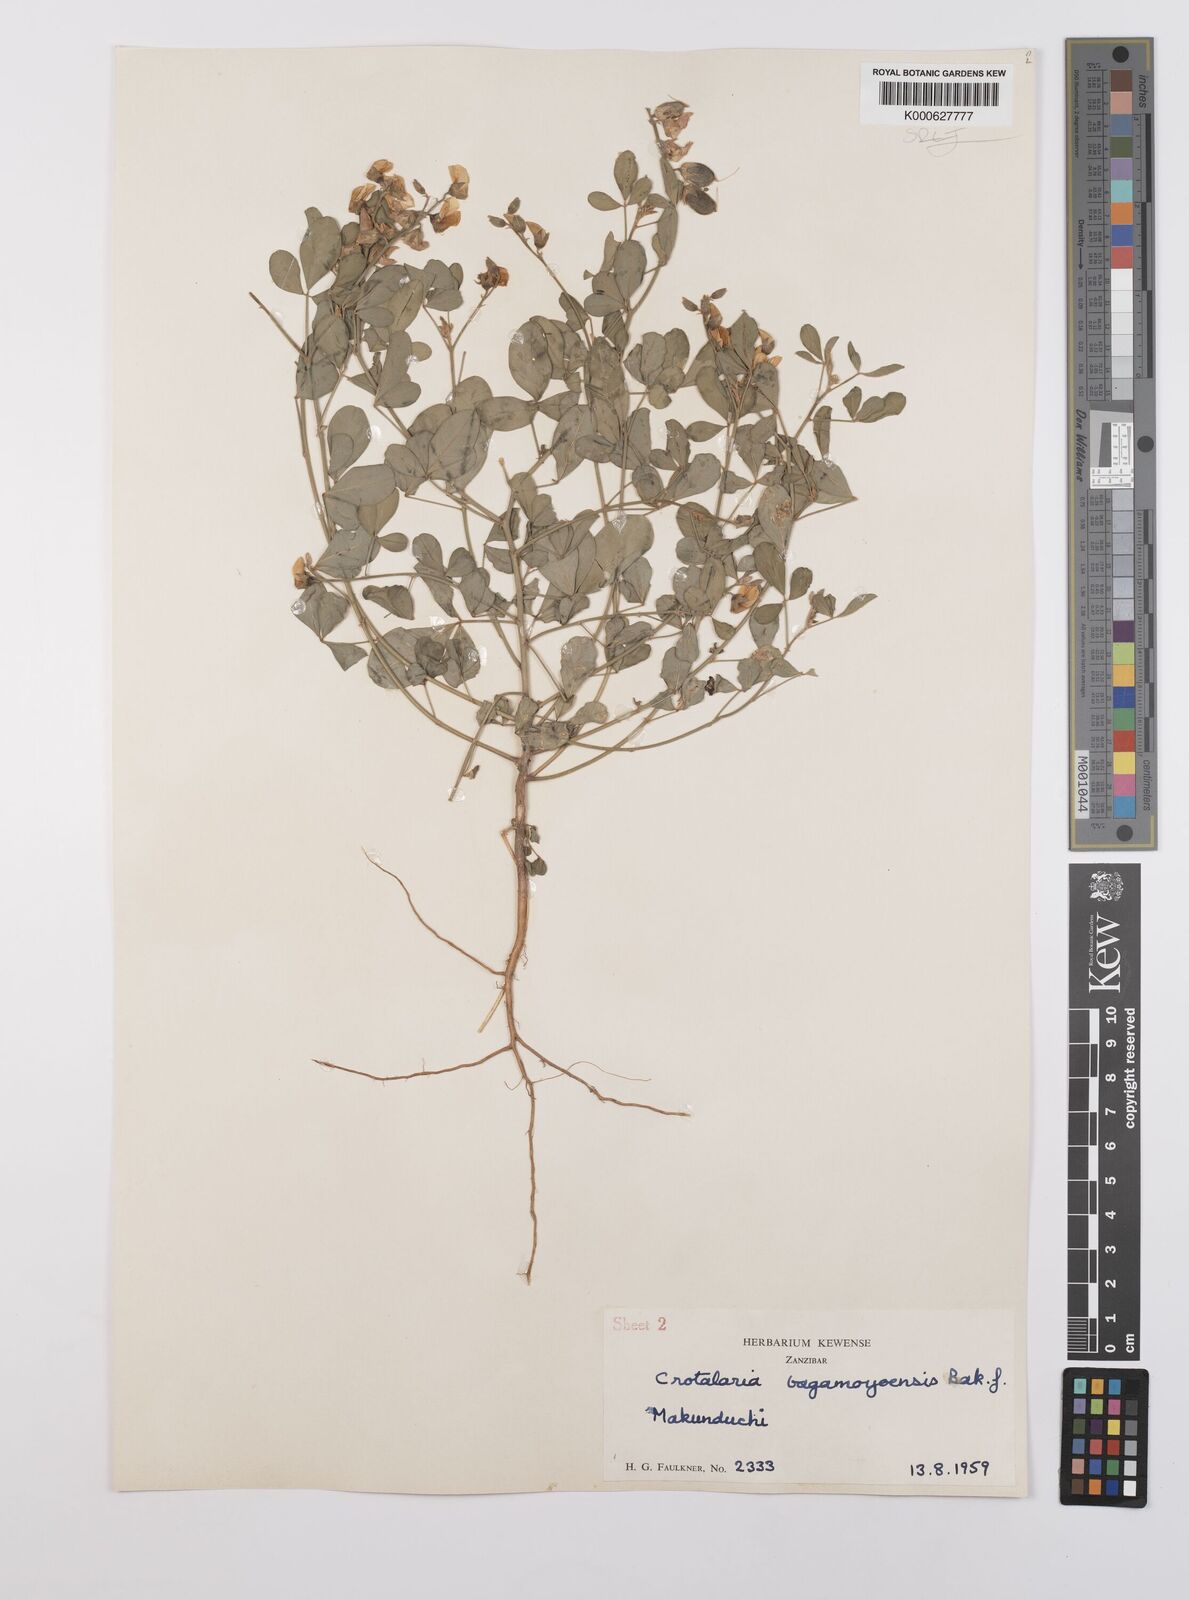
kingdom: Plantae
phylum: Tracheophyta
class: Magnoliopsida
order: Fabales
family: Fabaceae
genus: Crotalaria
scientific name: Crotalaria laburnoides
